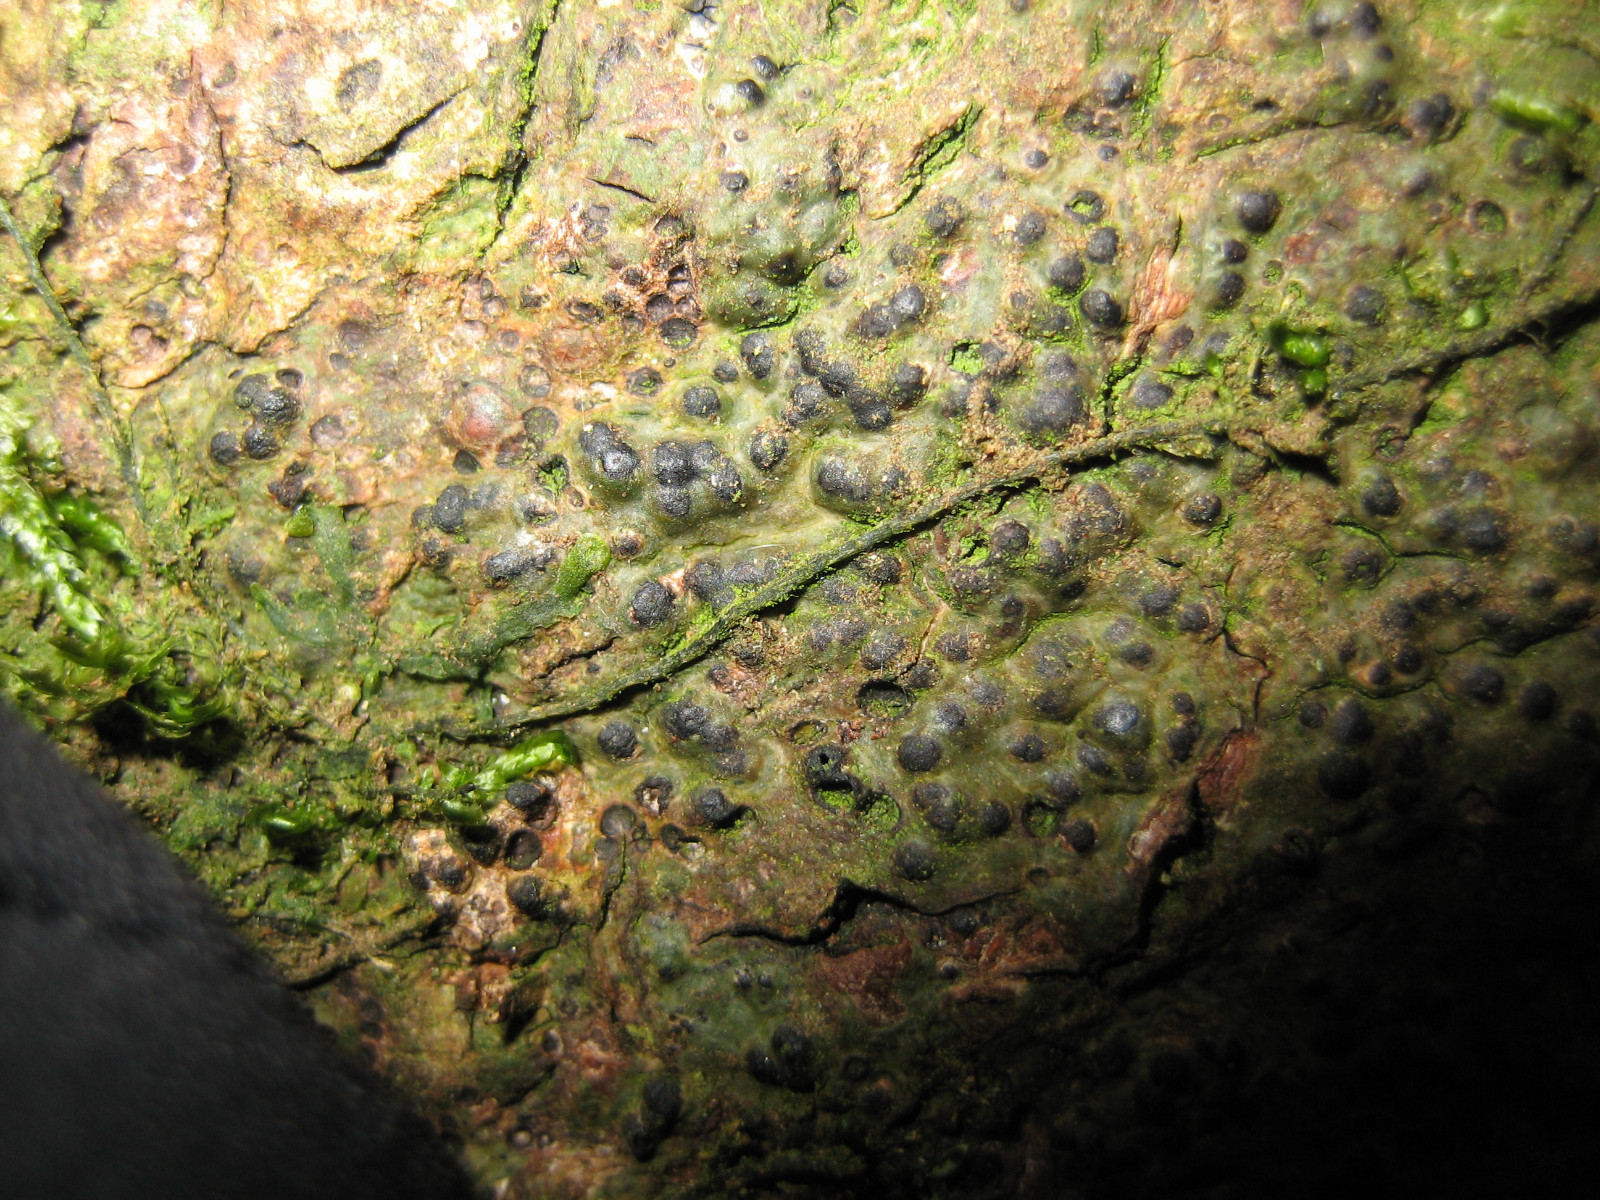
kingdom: Fungi
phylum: Ascomycota
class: Eurotiomycetes
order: Pyrenulales
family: Pyrenulaceae
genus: Pyrenula
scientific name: Pyrenula nitida
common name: glinsende kernelav
